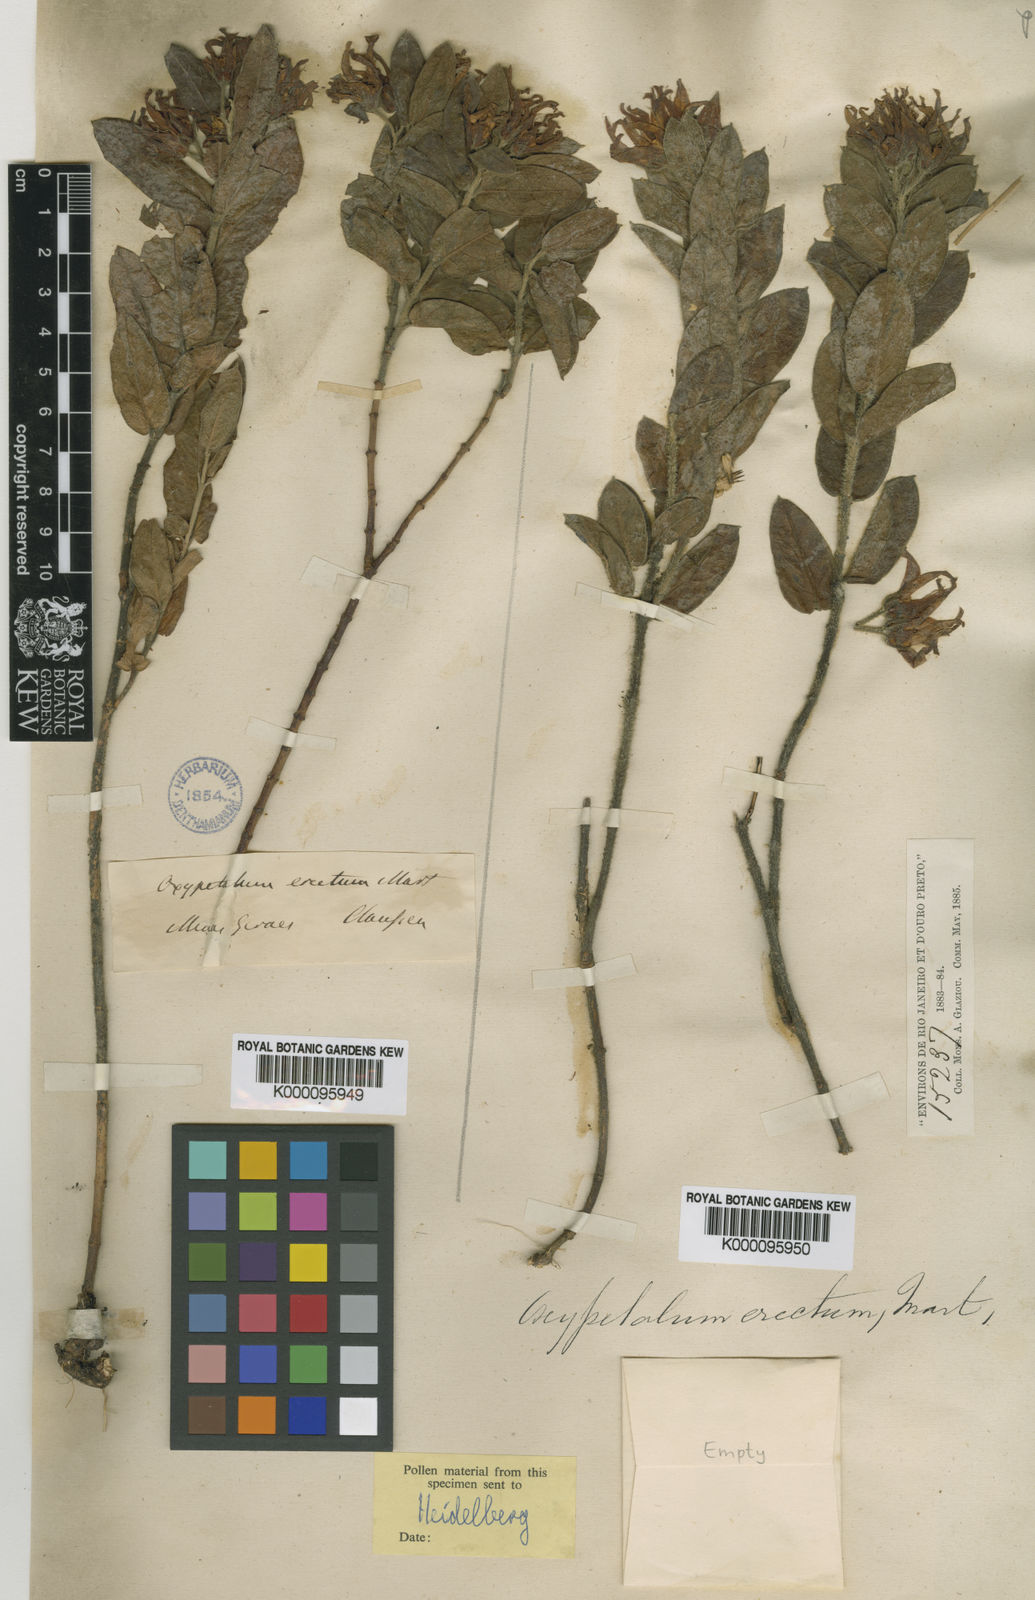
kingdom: Plantae
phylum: Tracheophyta
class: Magnoliopsida
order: Gentianales
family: Apocynaceae
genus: Oxypetalum
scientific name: Oxypetalum erectum
